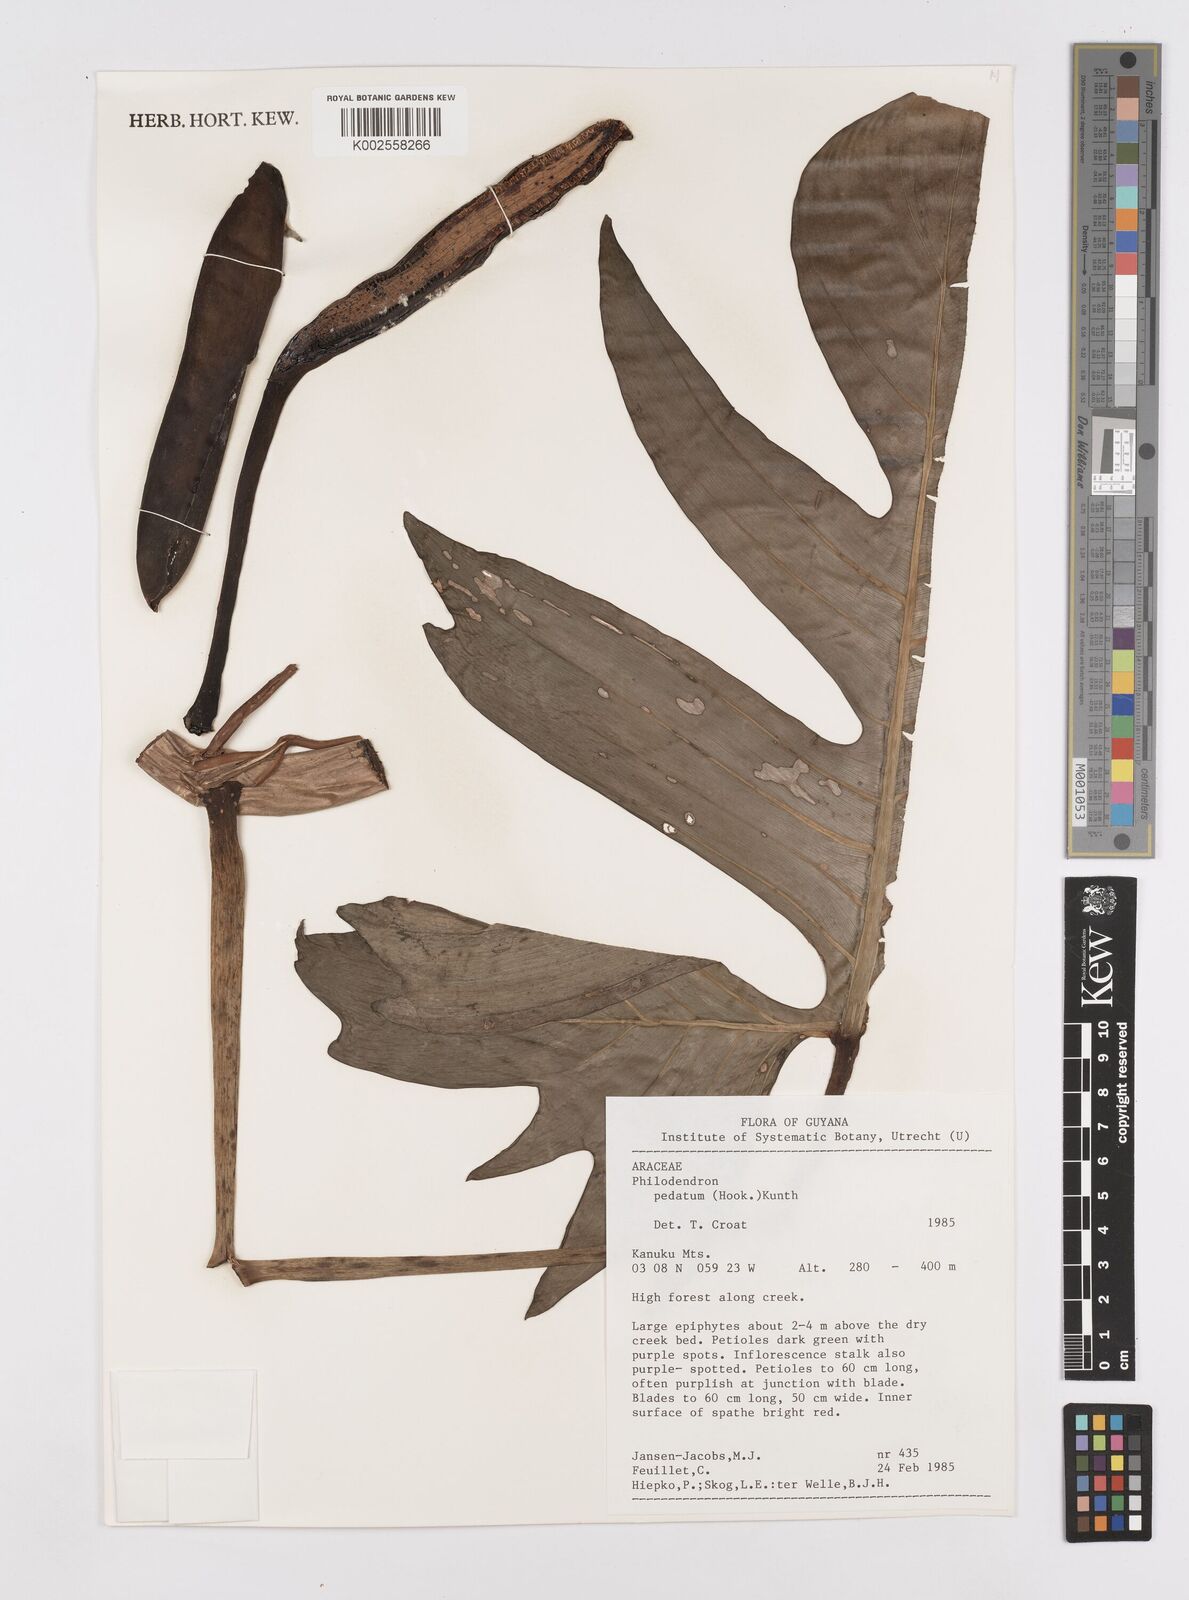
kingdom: Plantae
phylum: Tracheophyta
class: Liliopsida
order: Alismatales
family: Araceae
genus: Philodendron
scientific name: Philodendron pedatum
